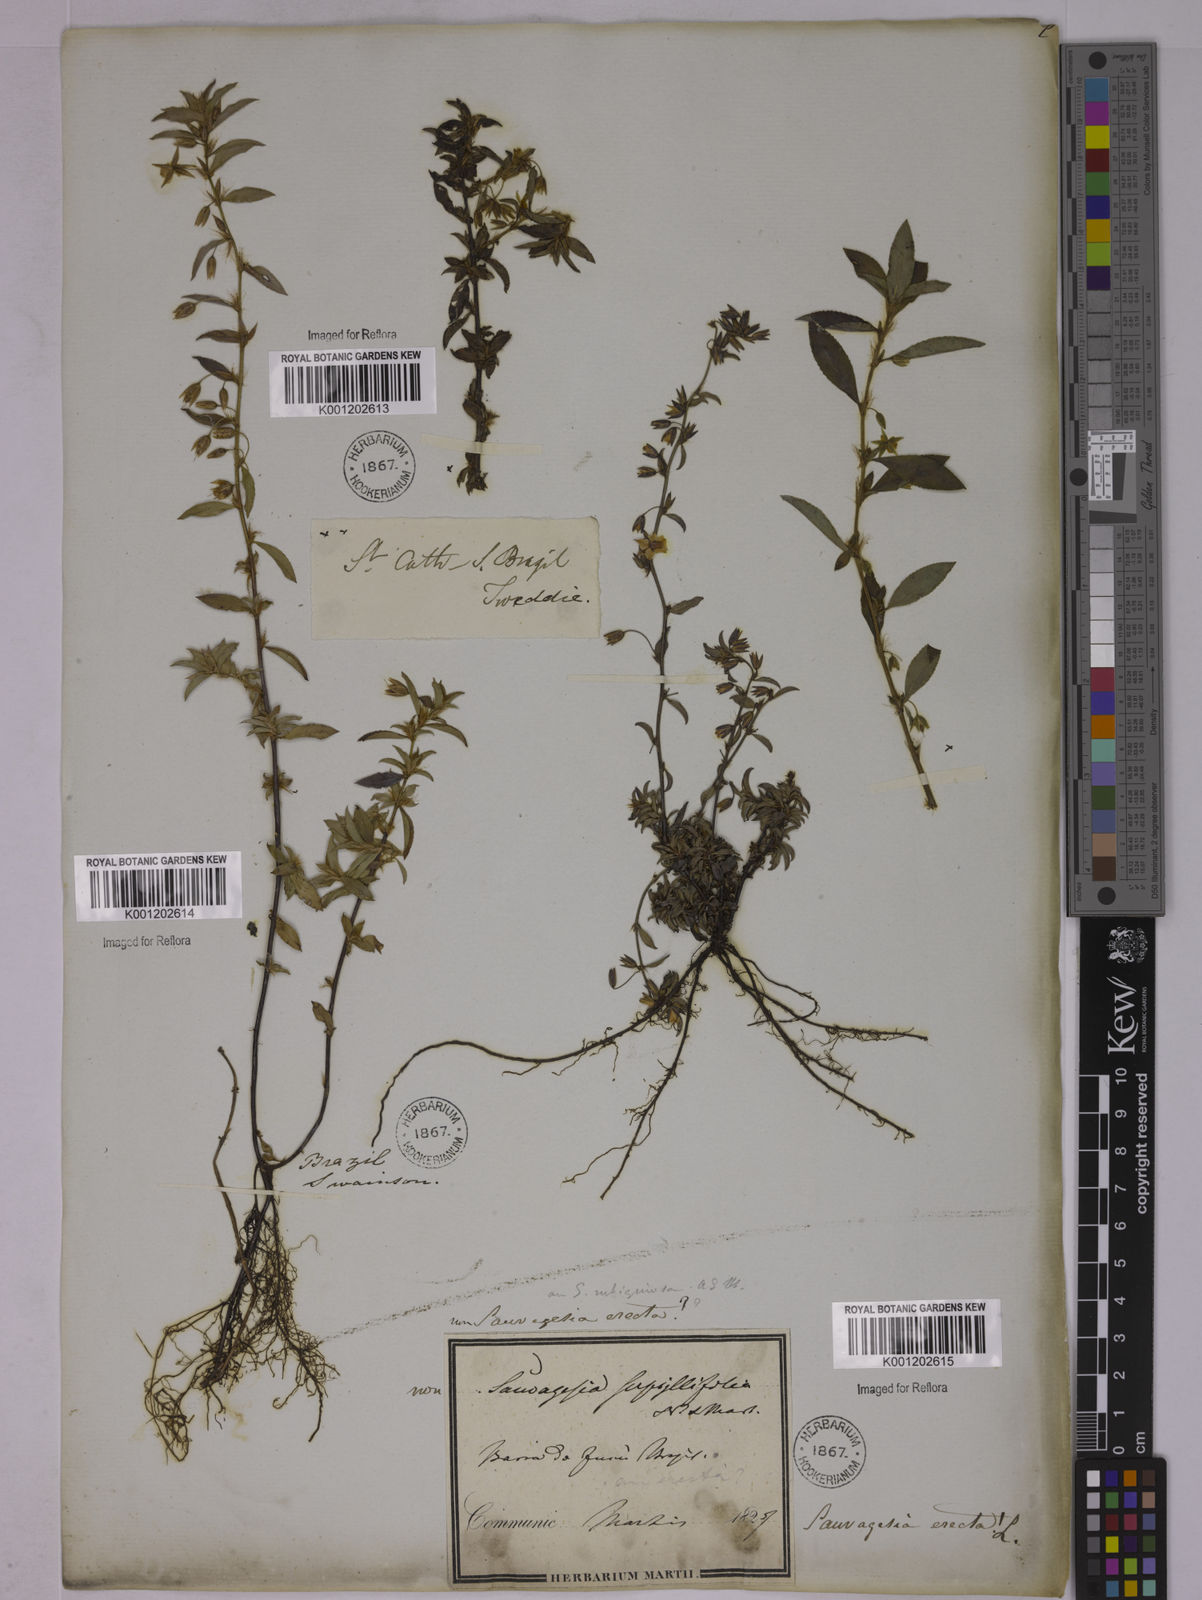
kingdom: Plantae
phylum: Tracheophyta
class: Magnoliopsida
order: Malpighiales
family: Ochnaceae
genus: Sauvagesia
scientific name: Sauvagesia erecta
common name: Creole tea
